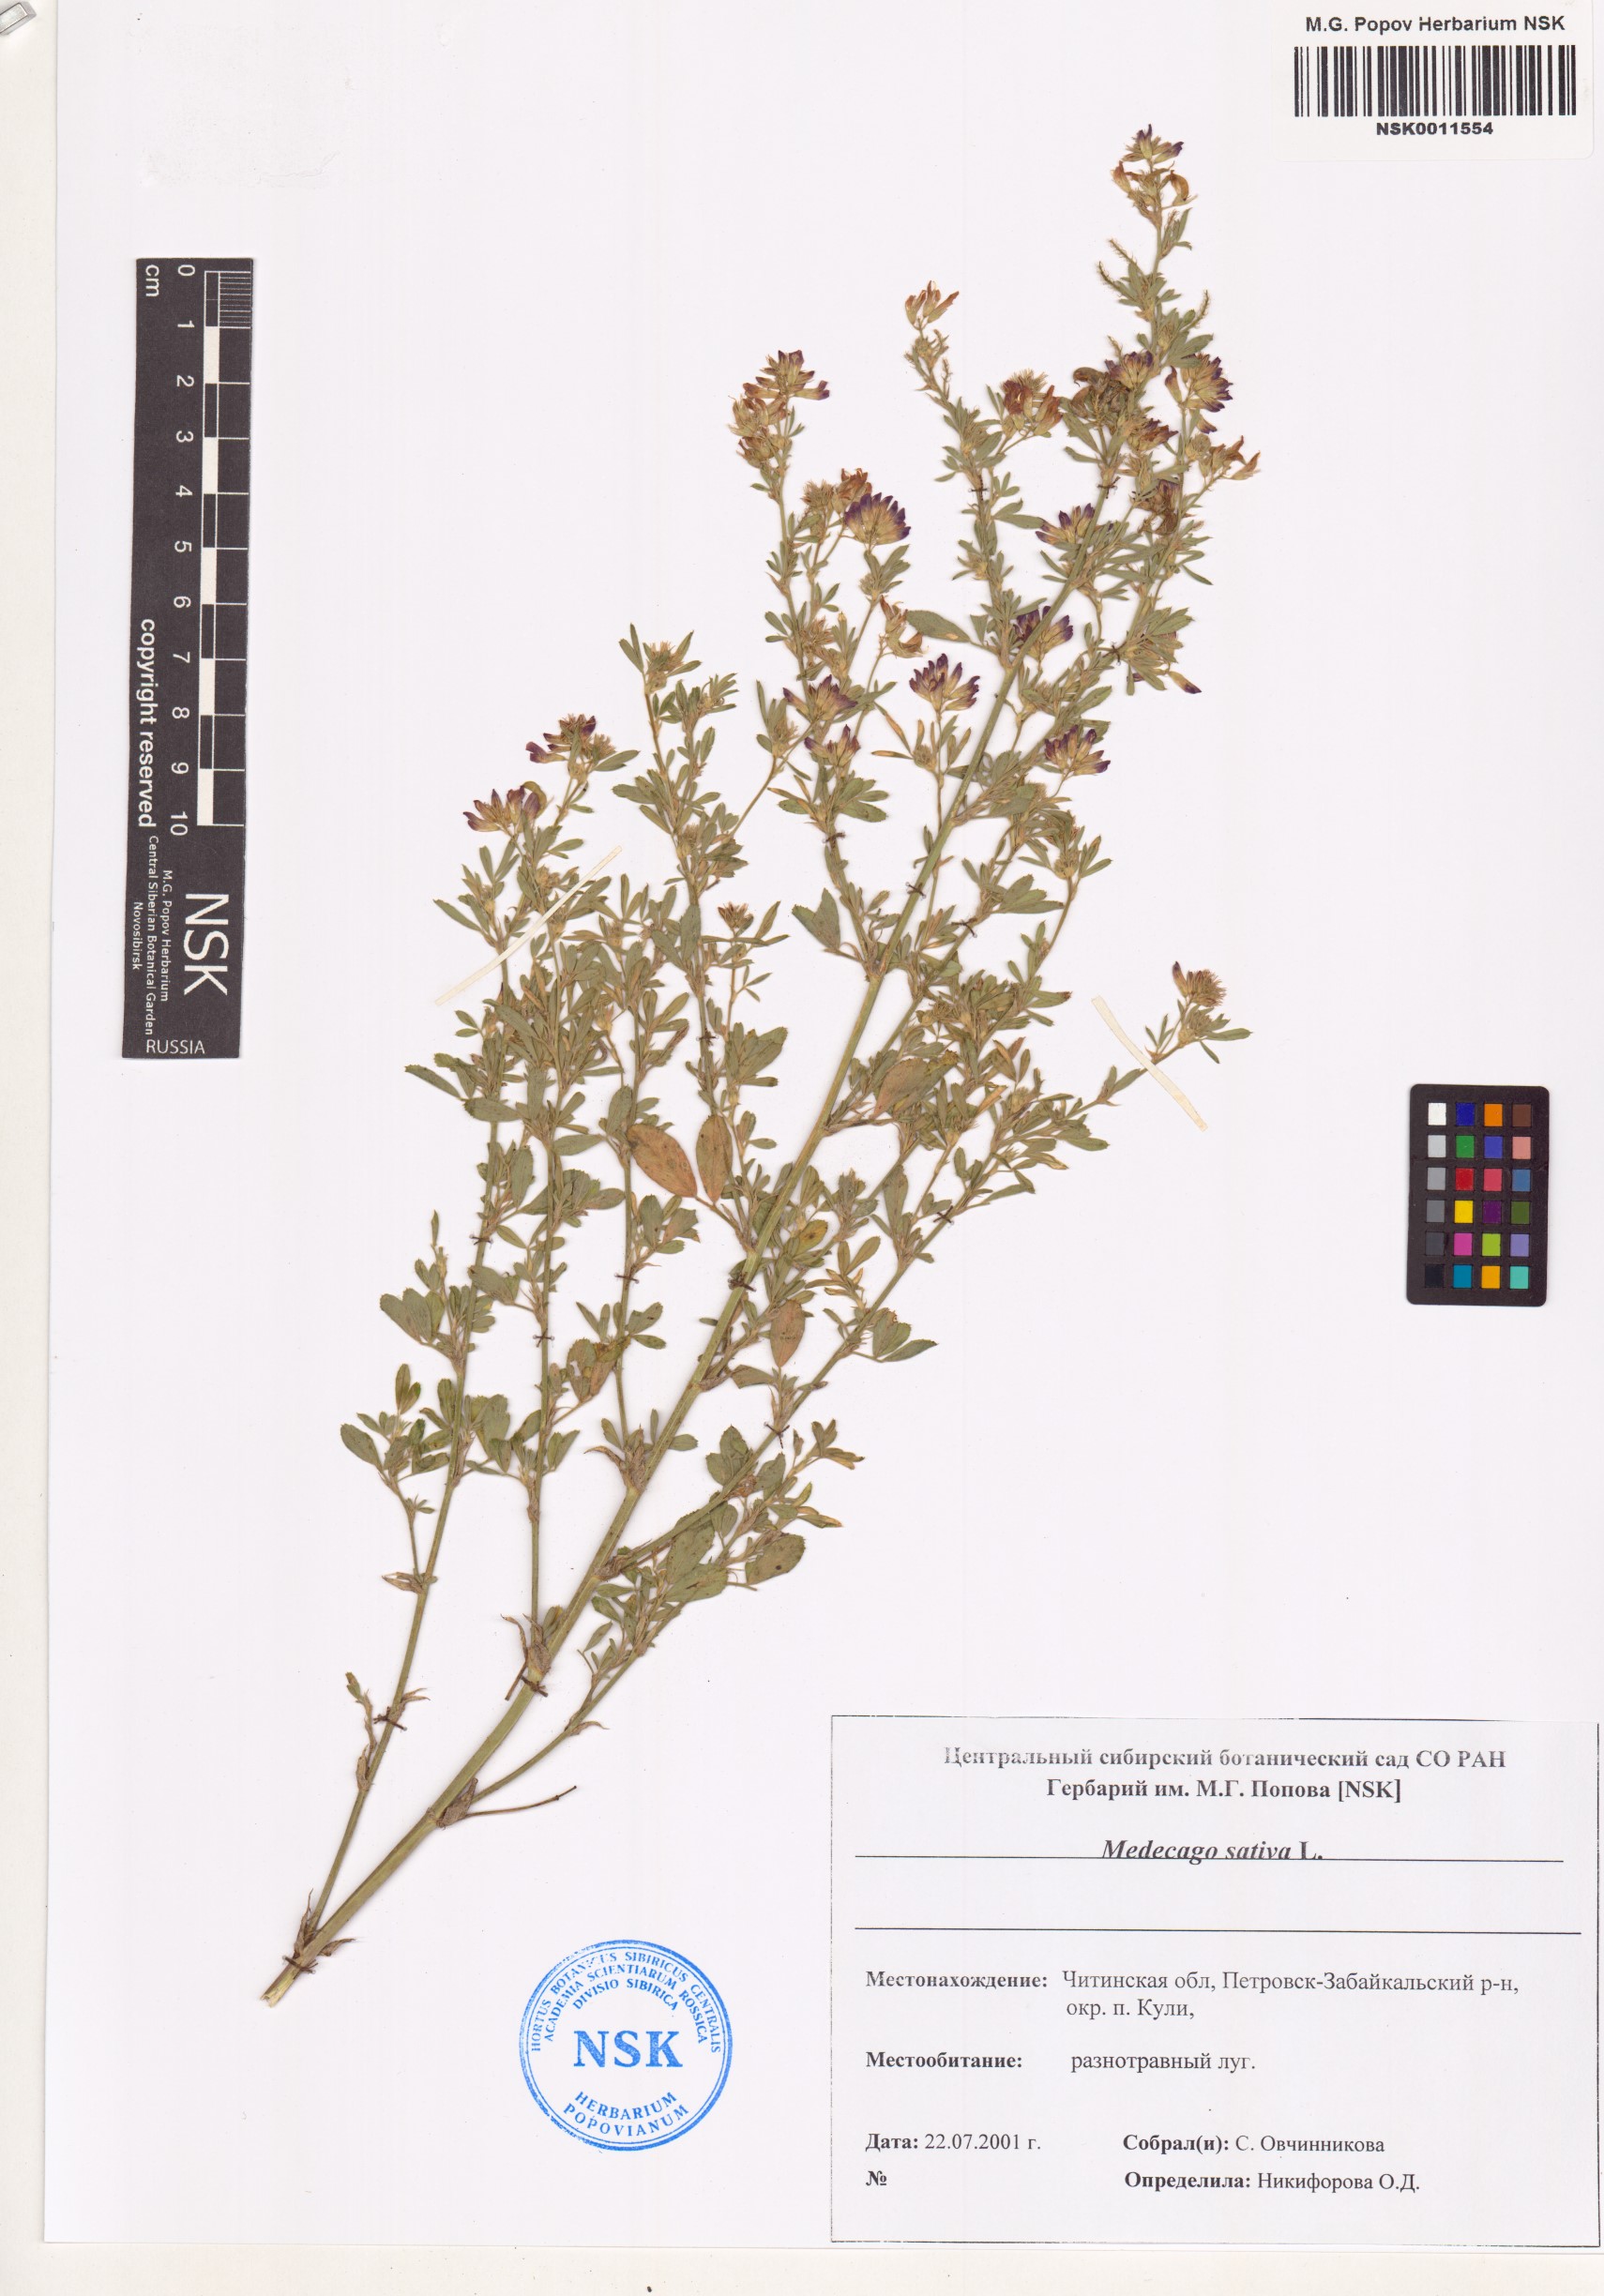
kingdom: Plantae
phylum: Tracheophyta
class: Magnoliopsida
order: Fabales
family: Fabaceae
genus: Medicago
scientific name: Medicago sativa
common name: Alfalfa
